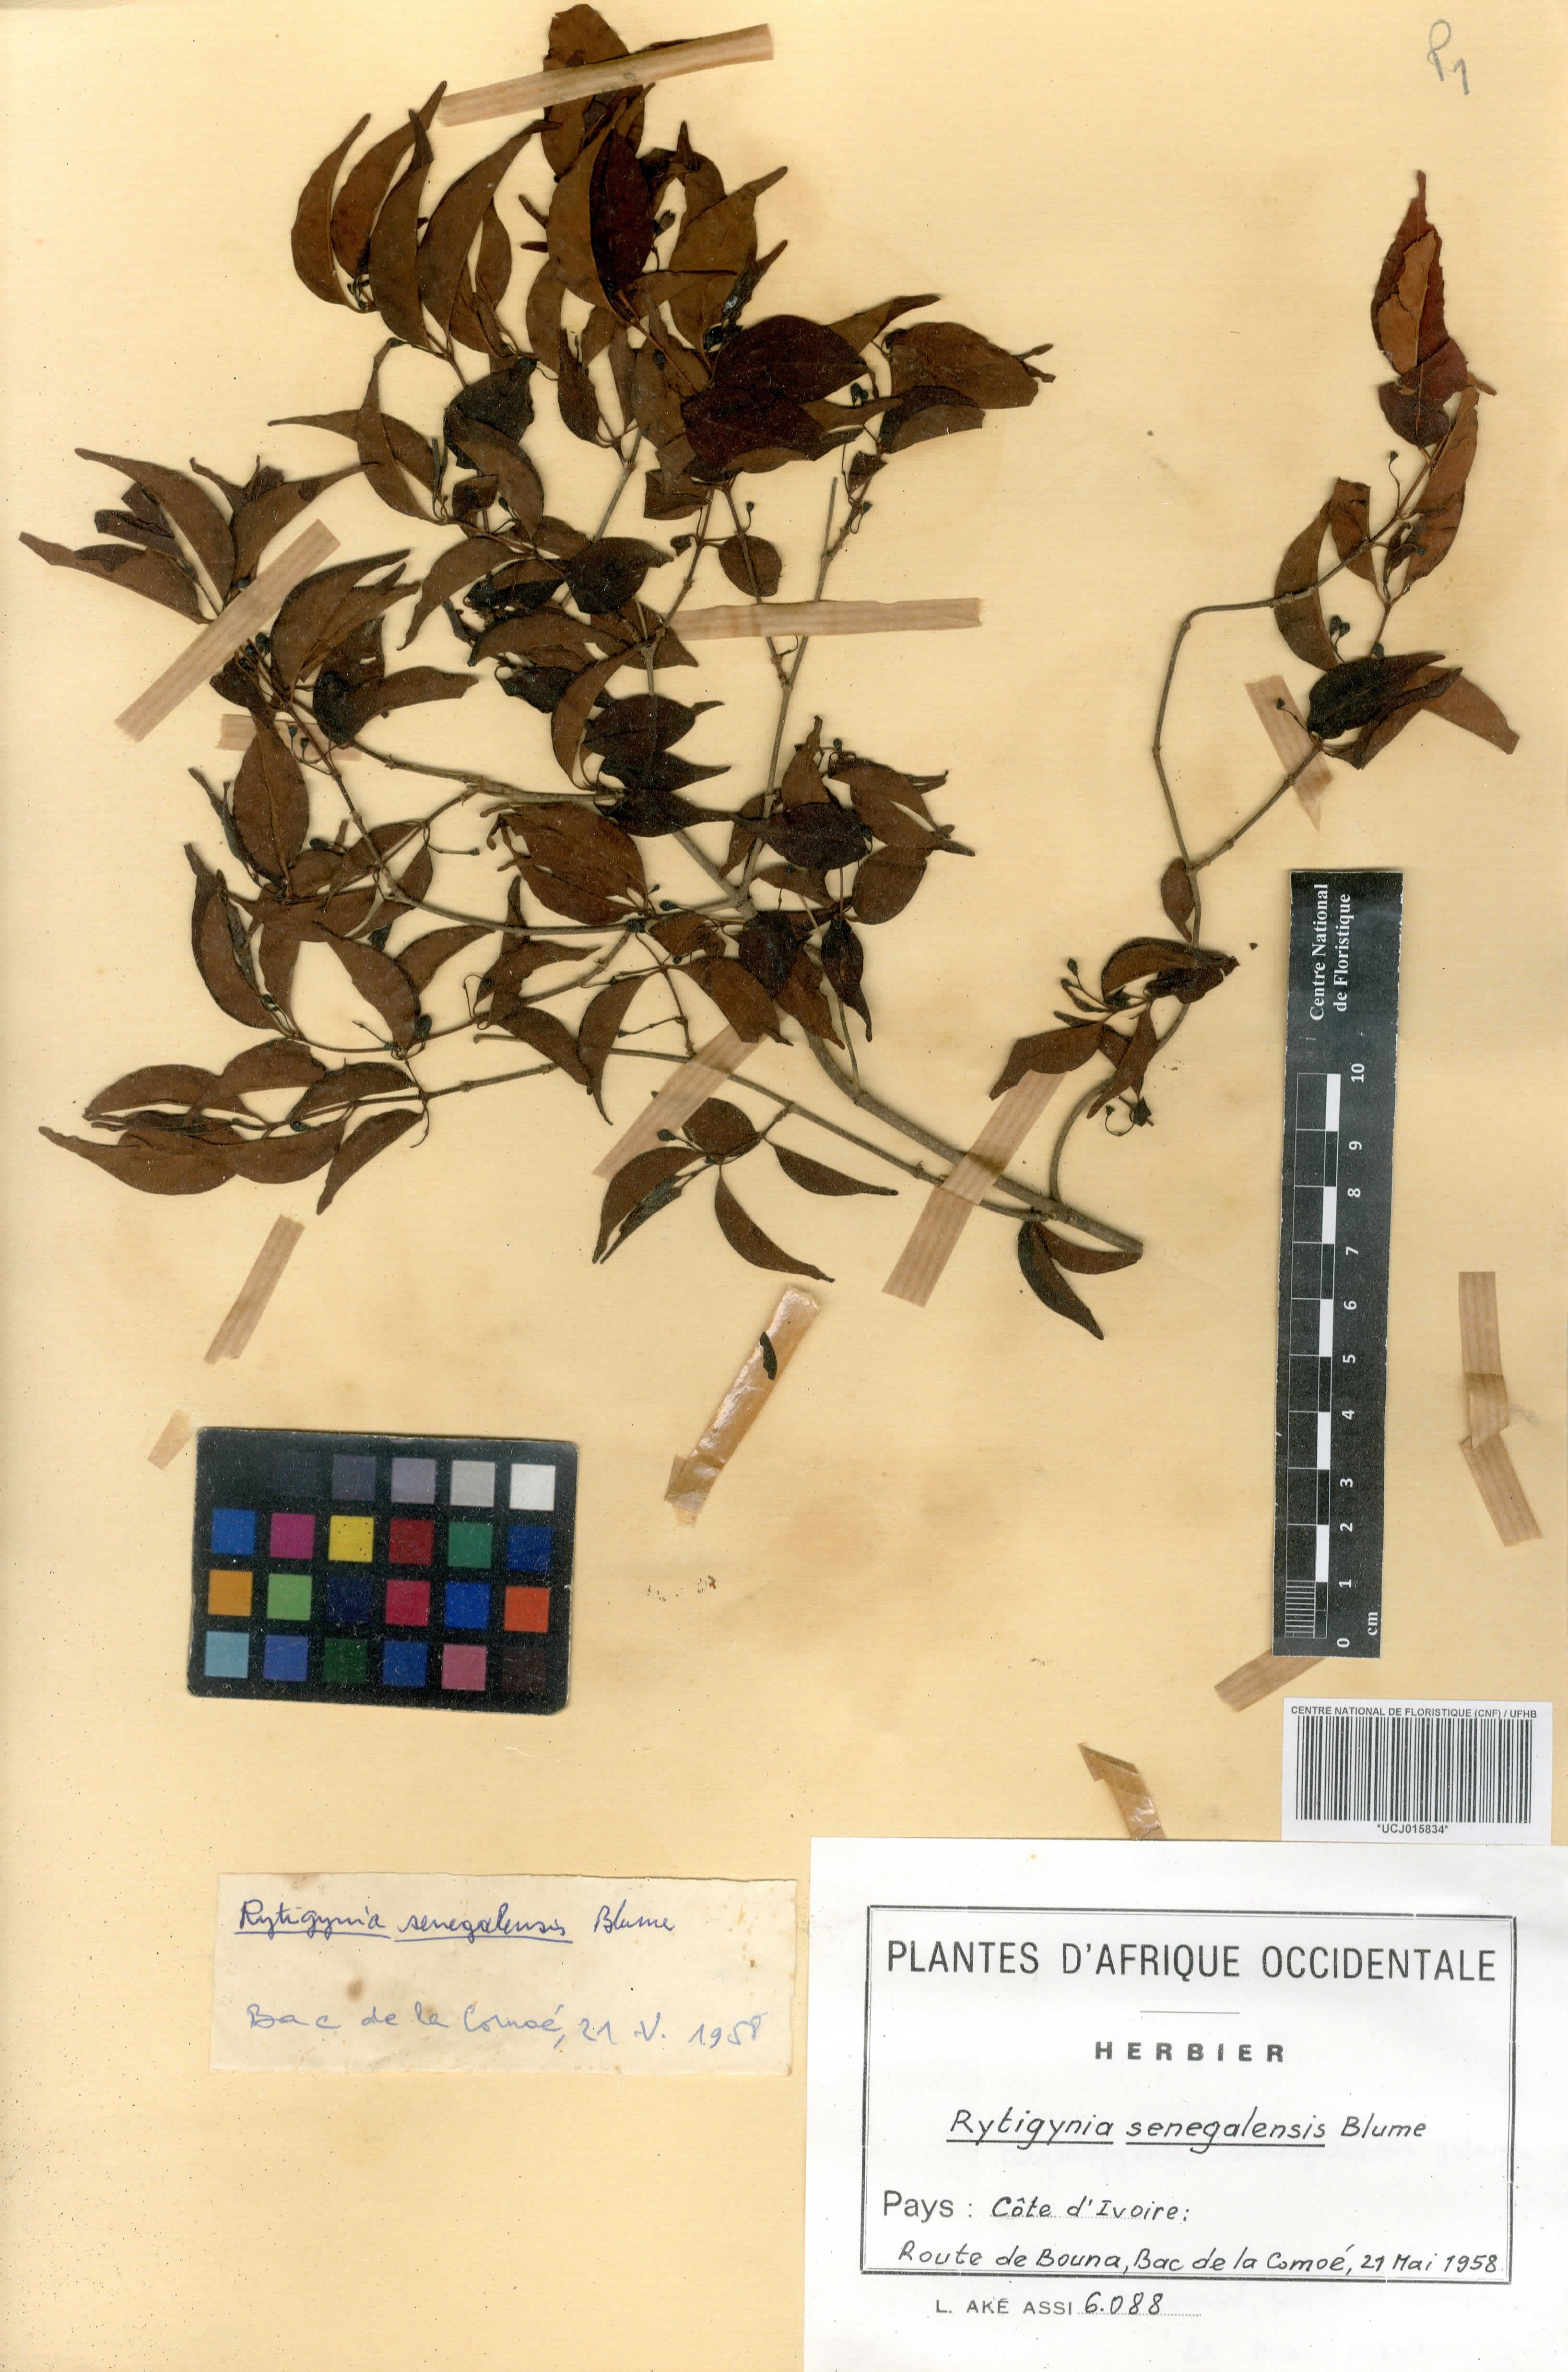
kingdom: Plantae
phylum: Tracheophyta
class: Magnoliopsida
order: Gentianales
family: Rubiaceae
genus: Rytigynia
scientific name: Rytigynia senegalensis
